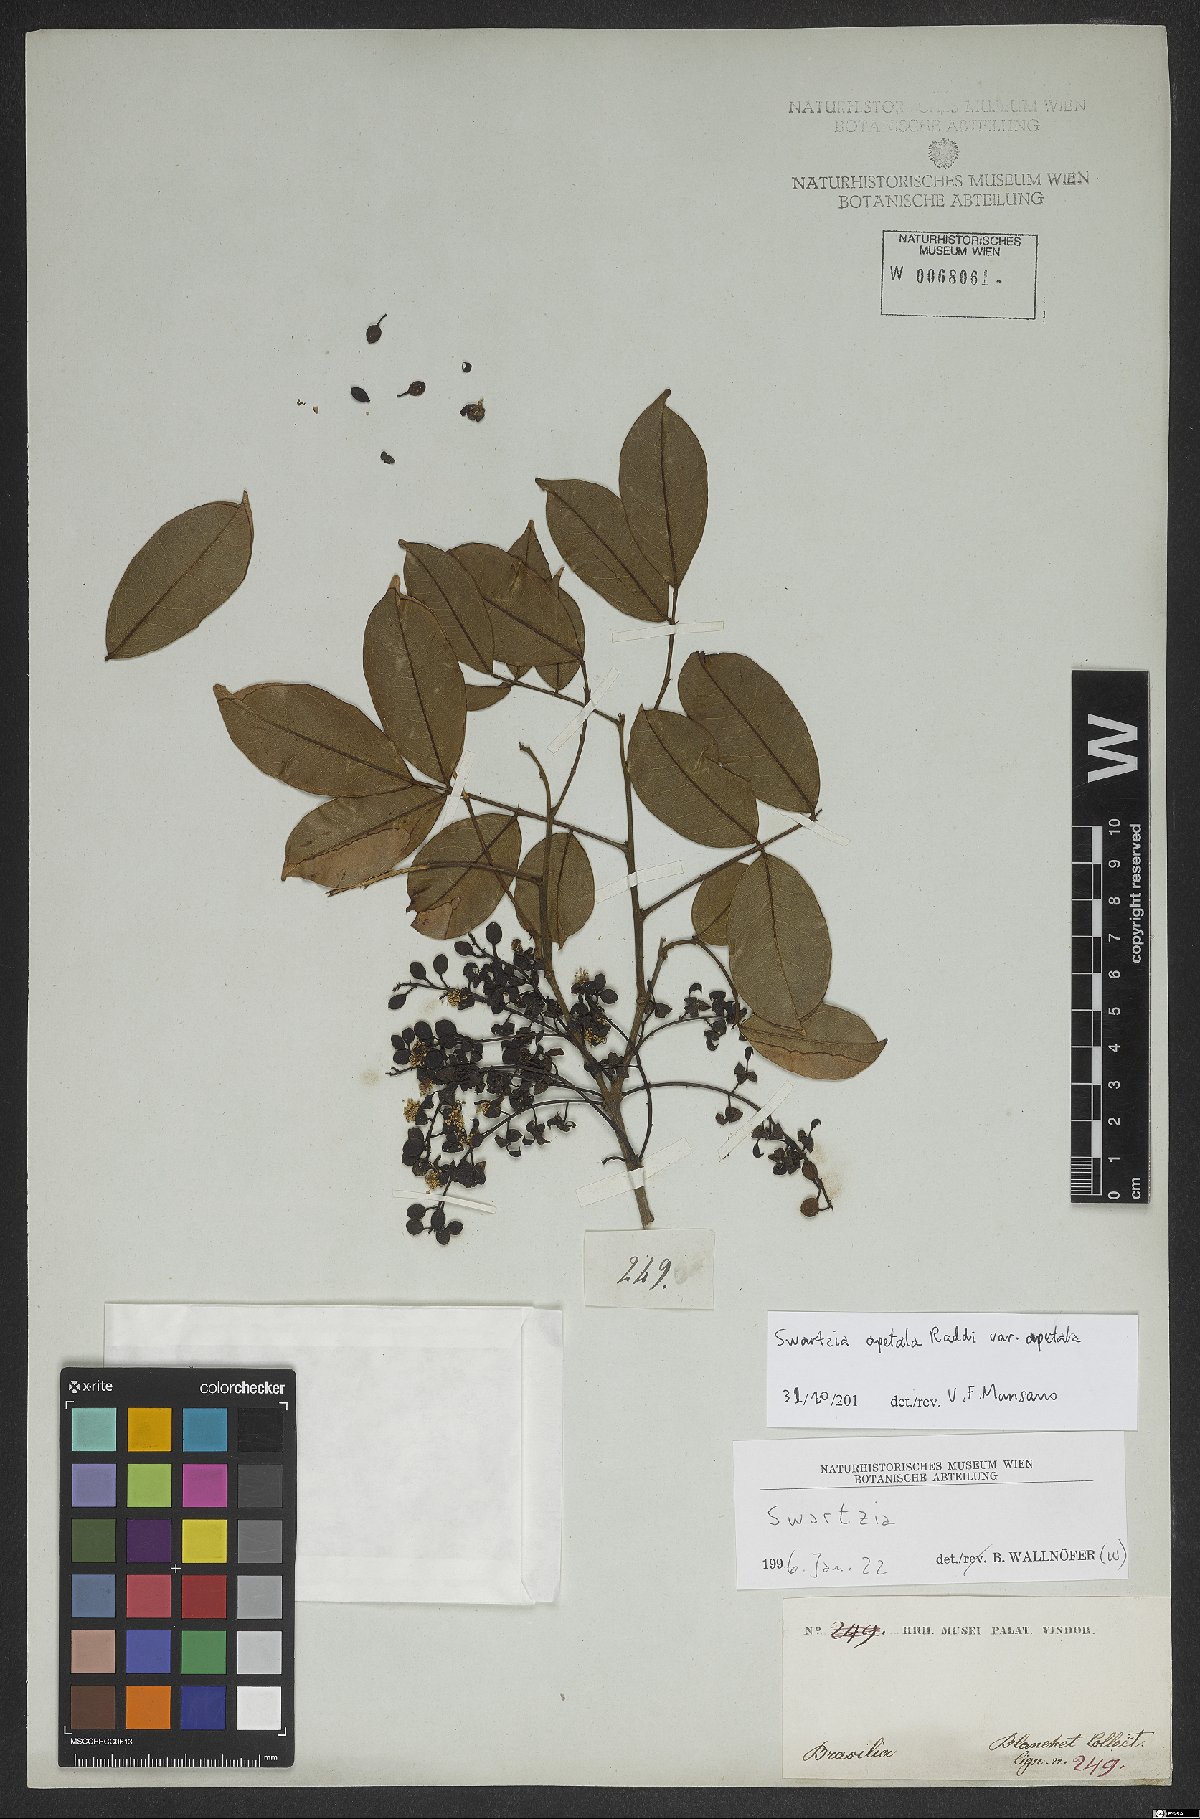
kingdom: Plantae
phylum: Tracheophyta
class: Magnoliopsida
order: Fabales
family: Fabaceae
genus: Swartzia
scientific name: Swartzia apetala
